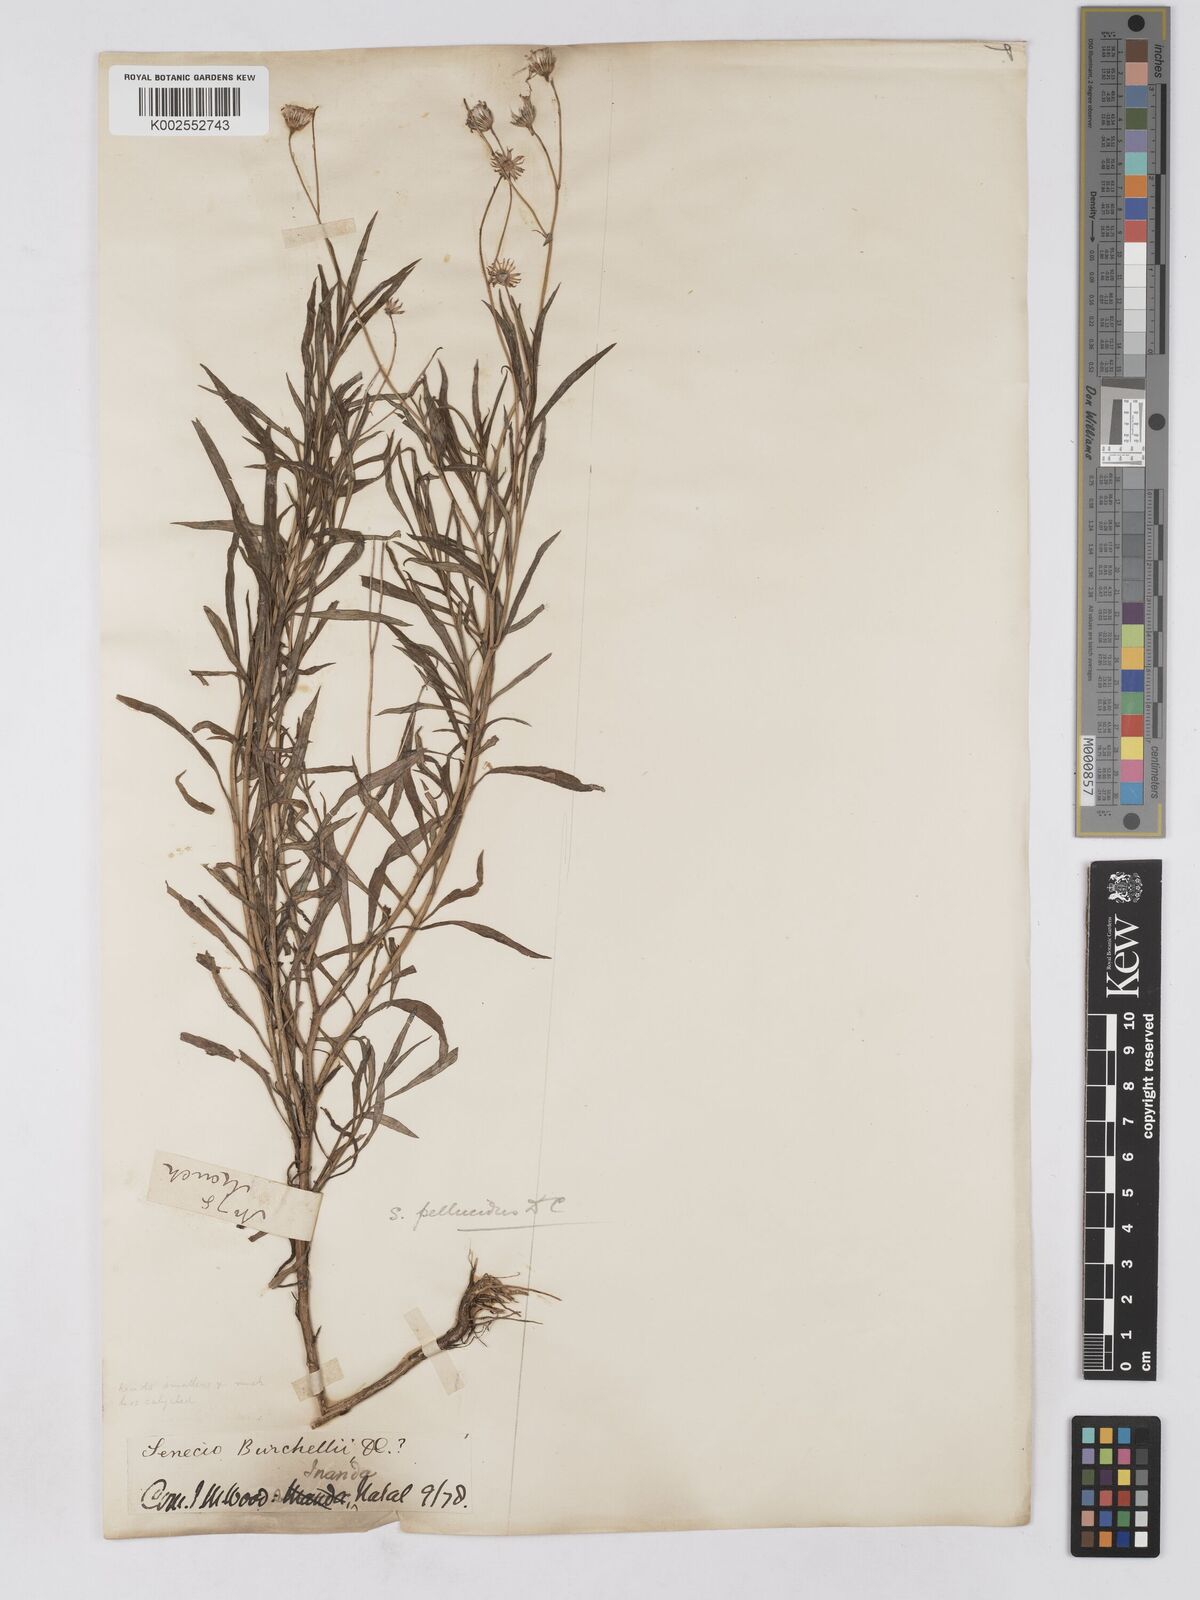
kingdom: Plantae
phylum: Tracheophyta
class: Magnoliopsida
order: Asterales
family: Asteraceae
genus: Senecio
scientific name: Senecio madagascariensis
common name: Madagascar ragwort
